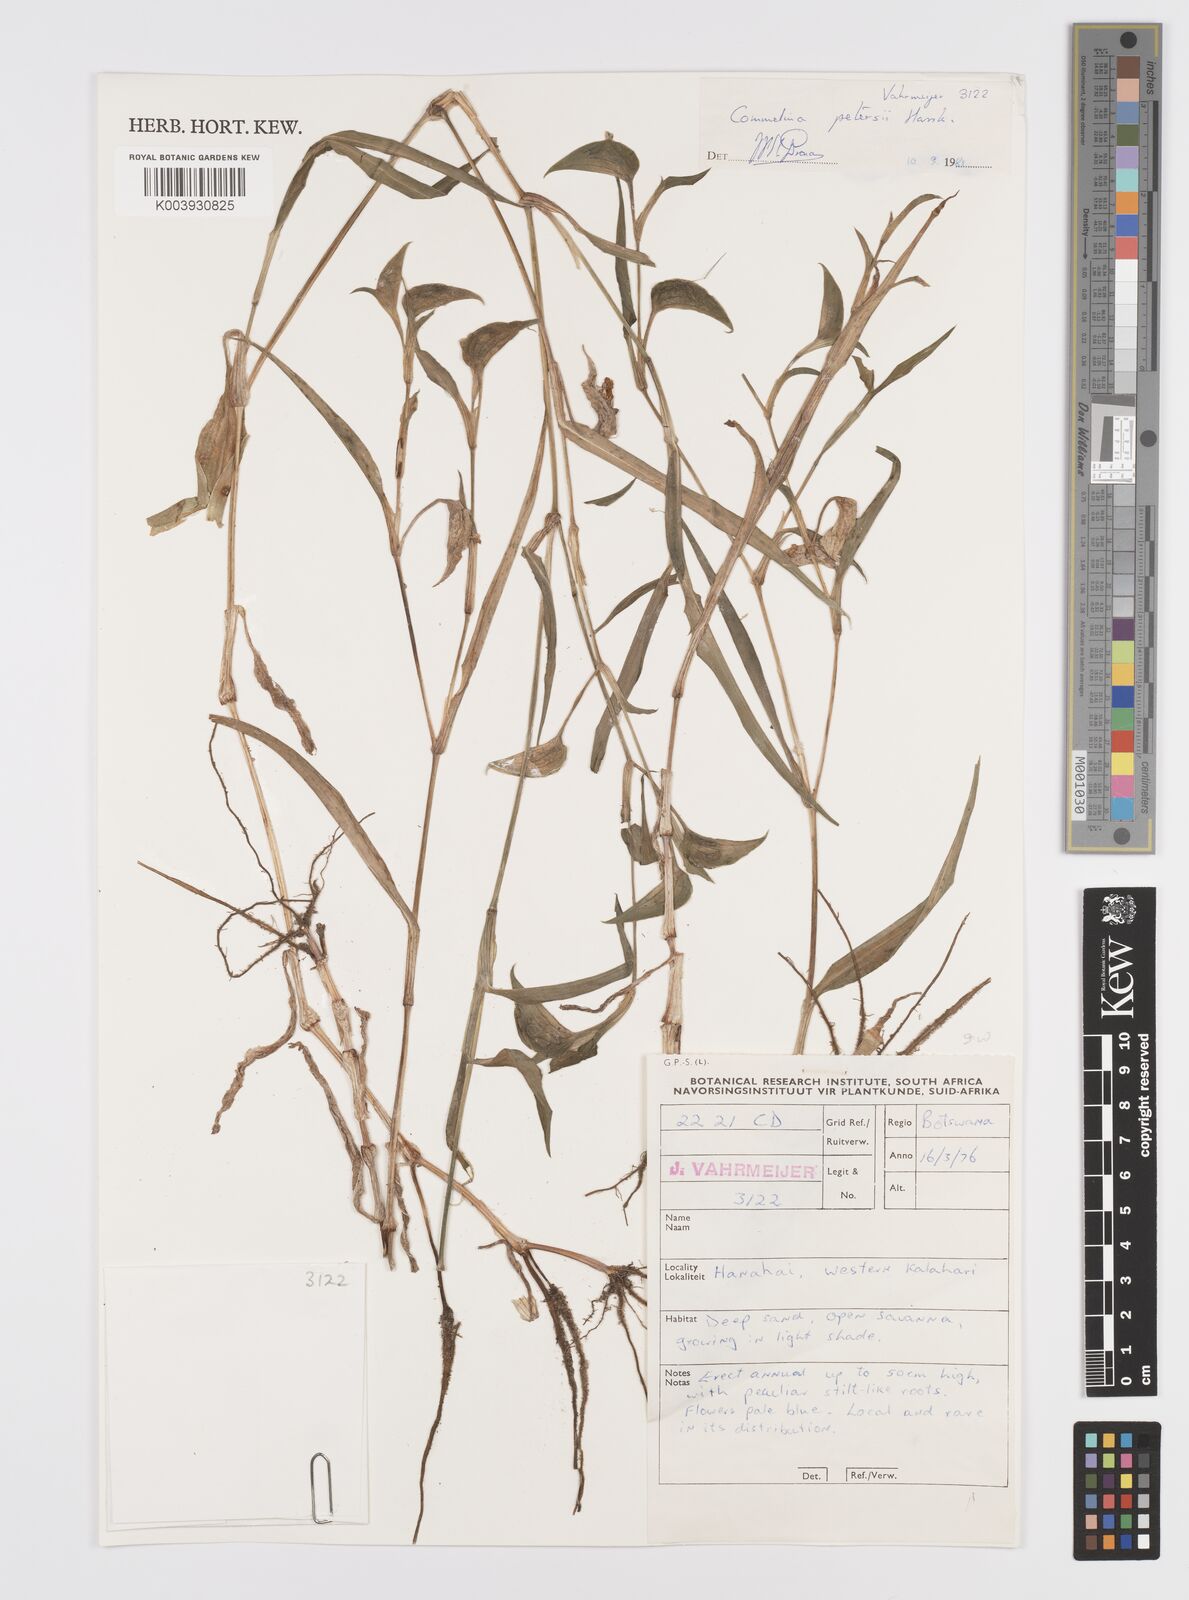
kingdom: Plantae
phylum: Tracheophyta
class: Liliopsida
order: Commelinales
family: Commelinaceae
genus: Commelina
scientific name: Commelina petersii
